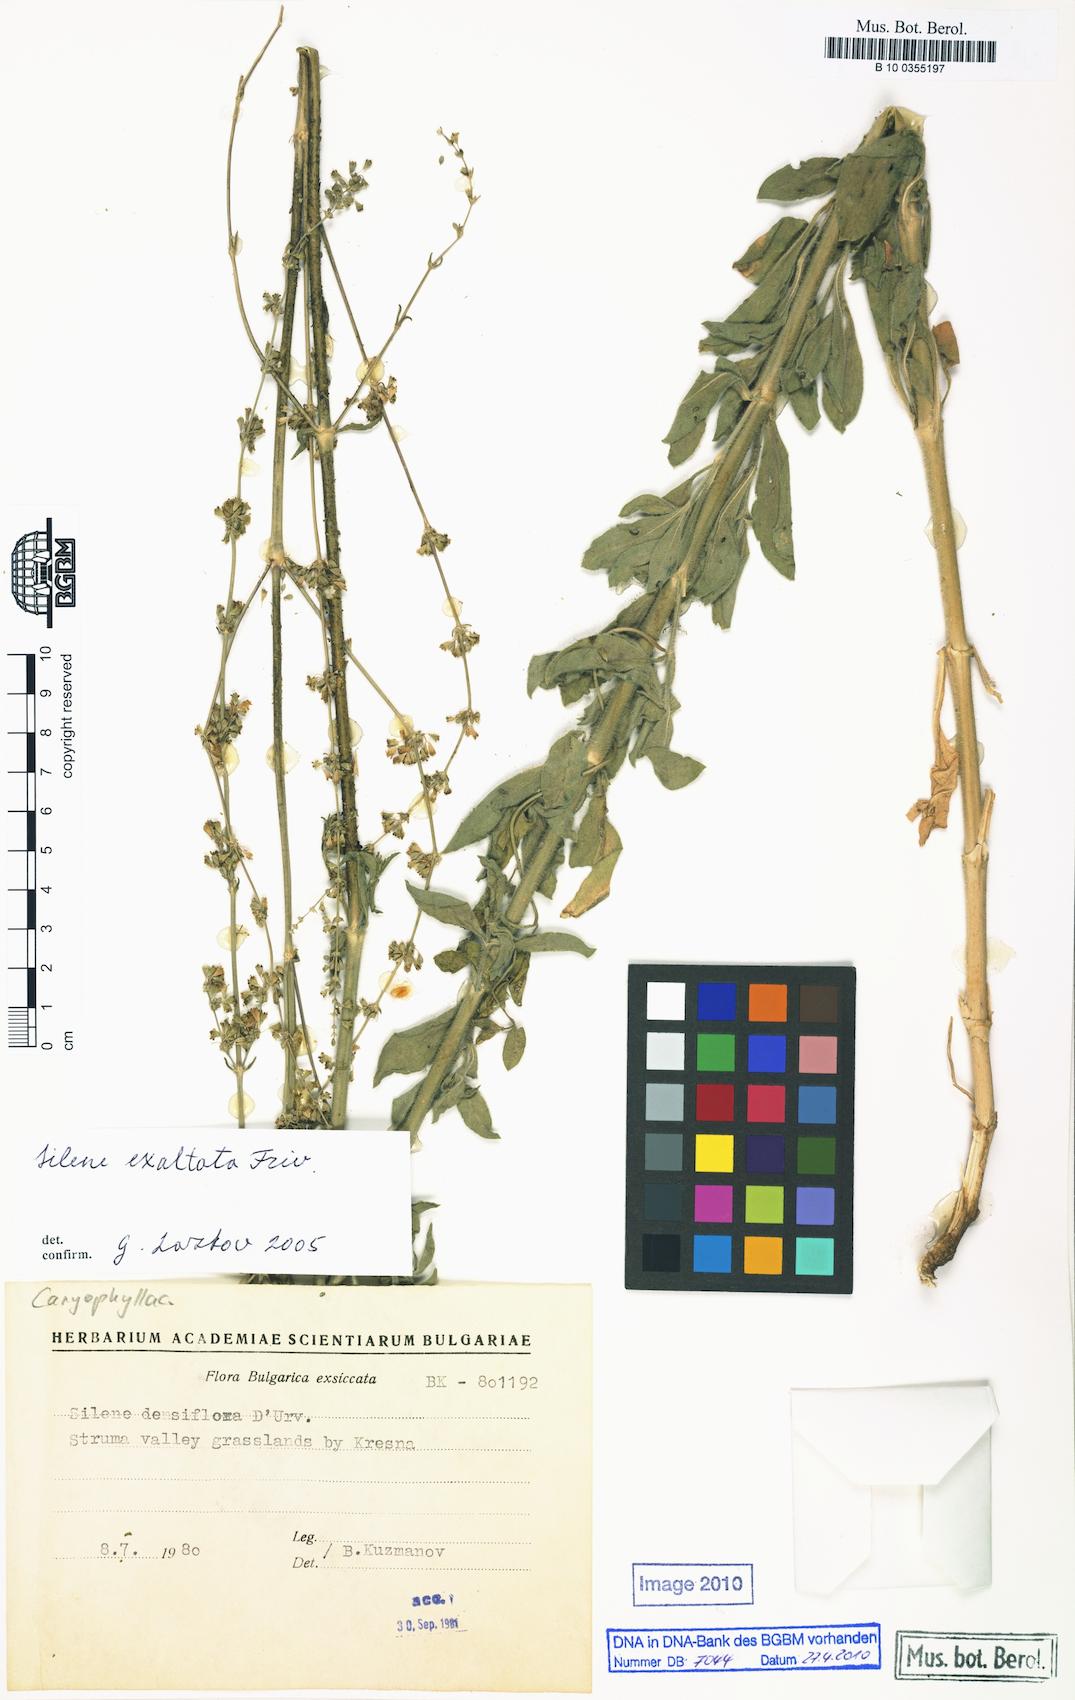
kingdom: Plantae
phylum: Tracheophyta
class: Magnoliopsida
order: Caryophyllales
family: Caryophyllaceae
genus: Silene
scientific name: Silene densiflora
